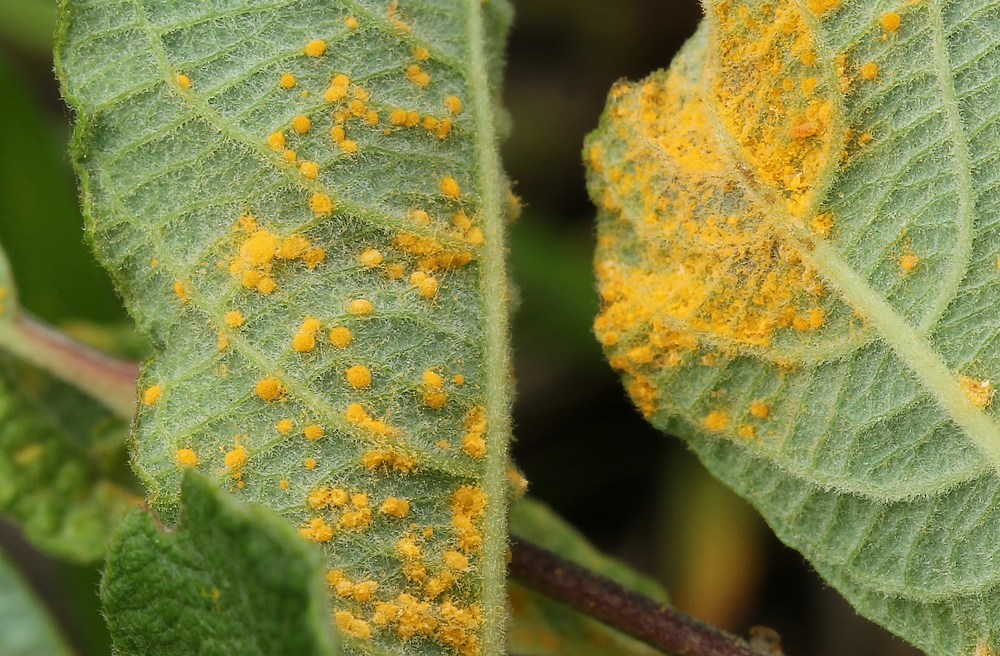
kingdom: Fungi
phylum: Basidiomycota
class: Pucciniomycetes
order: Pucciniales
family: Melampsoraceae
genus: Melampsora
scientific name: Melampsora
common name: skorperust
